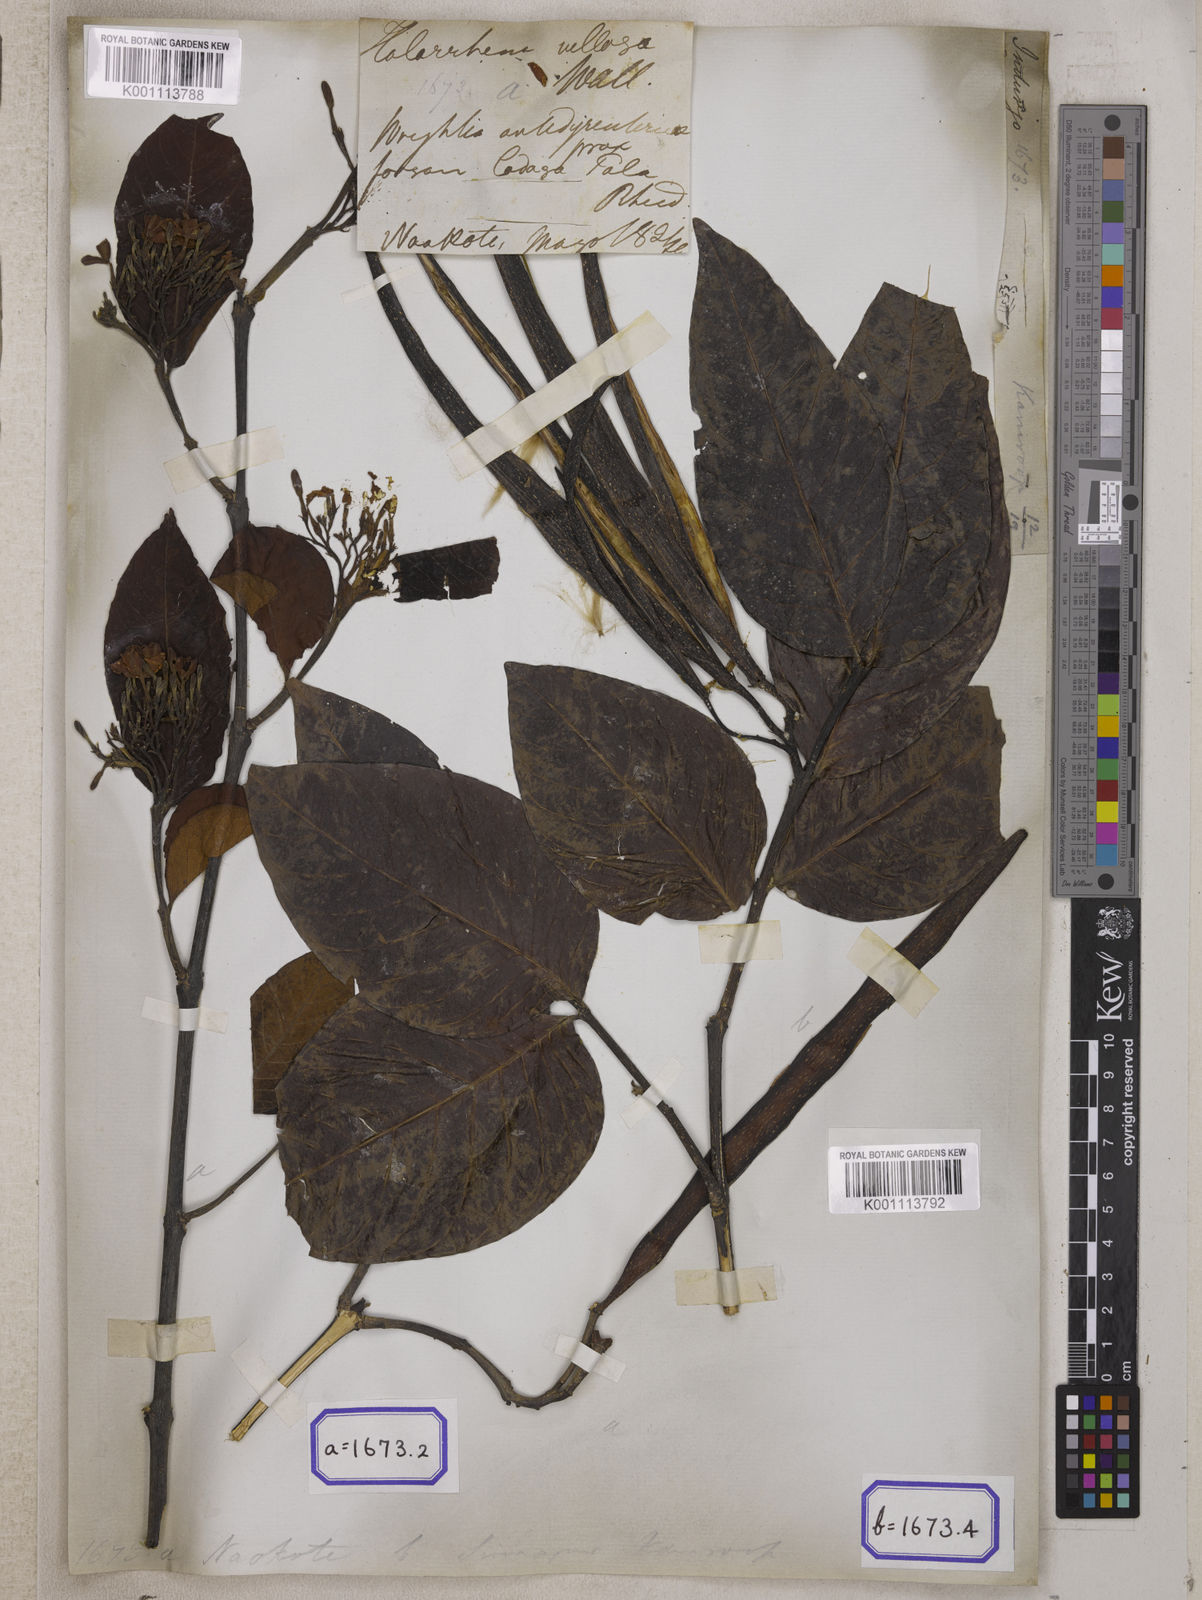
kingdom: Plantae
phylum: Tracheophyta
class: Magnoliopsida
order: Gentianales
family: Apocynaceae
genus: Holarrhena
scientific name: Holarrhena
